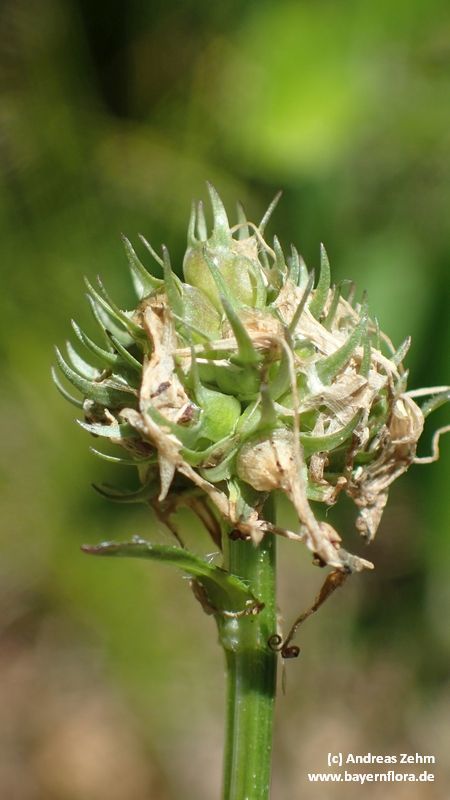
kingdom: Plantae
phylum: Tracheophyta
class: Magnoliopsida
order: Asterales
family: Campanulaceae
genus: Phyteuma
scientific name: Phyteuma orbiculare
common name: Round-headed rampion
